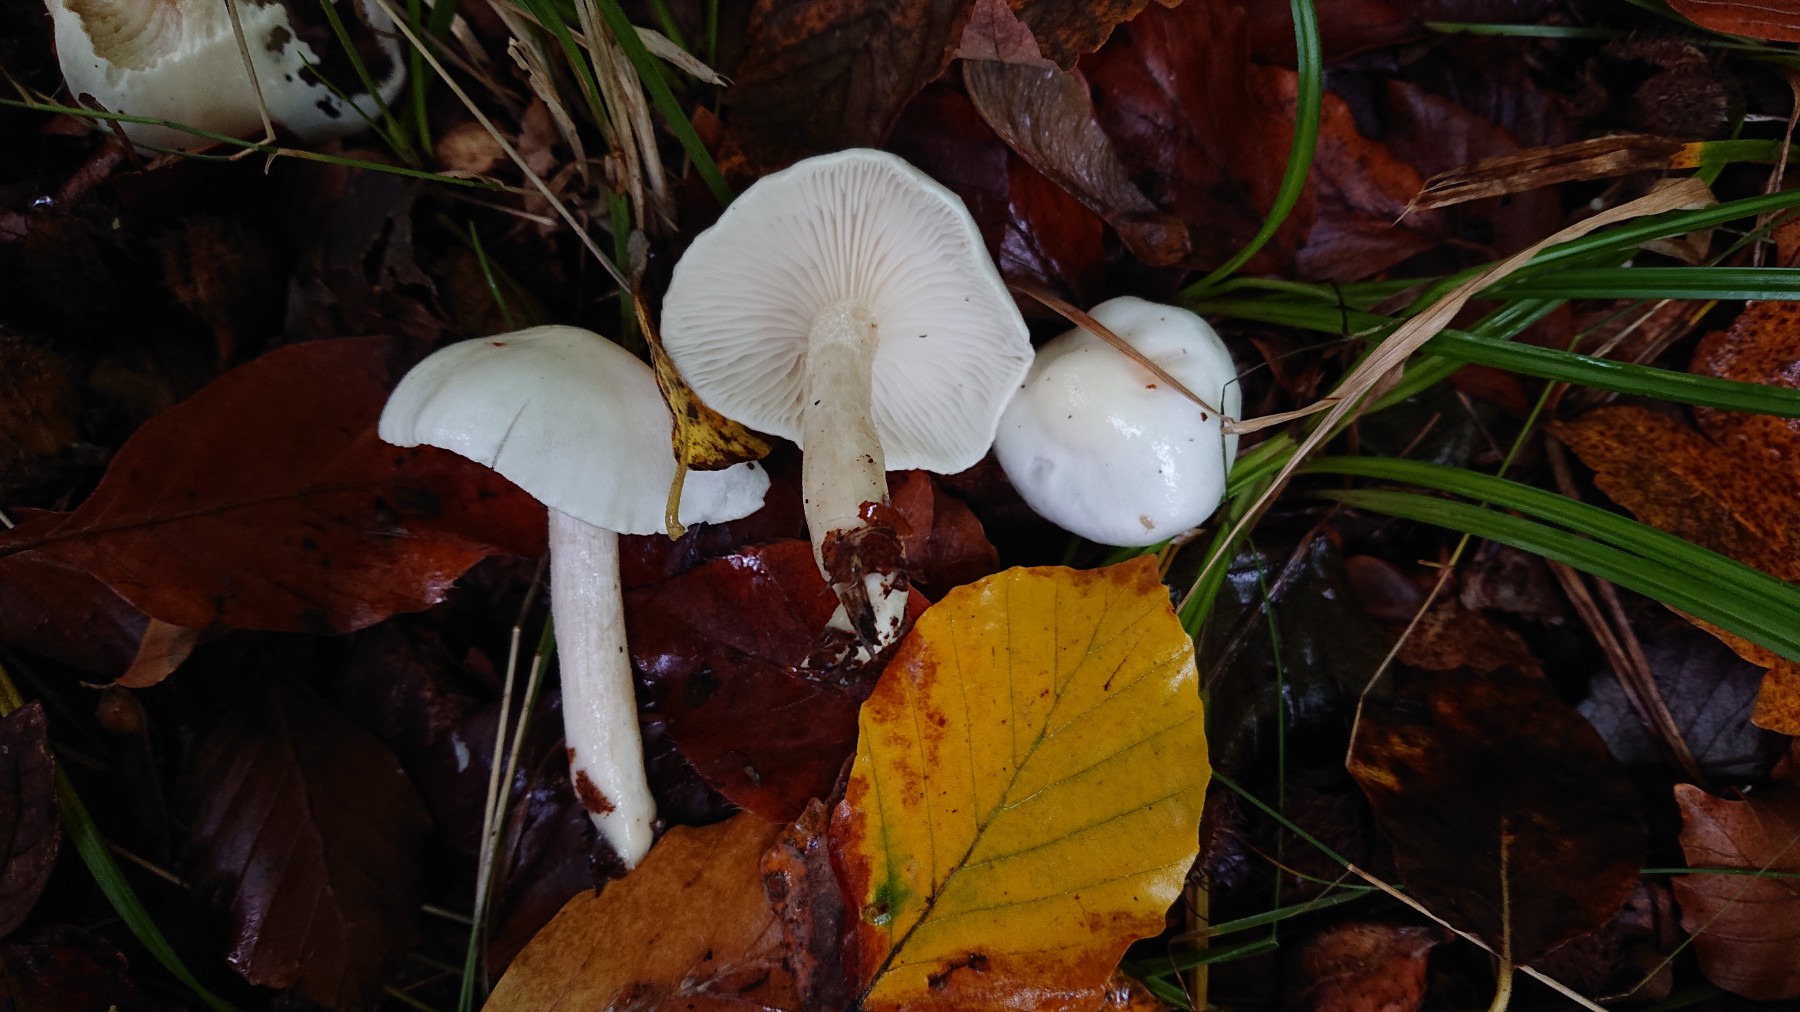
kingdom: Fungi
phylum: Basidiomycota
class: Agaricomycetes
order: Agaricales
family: Hygrophoraceae
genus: Hygrophorus
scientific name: Hygrophorus eburneus
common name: elfenbens-sneglehat
